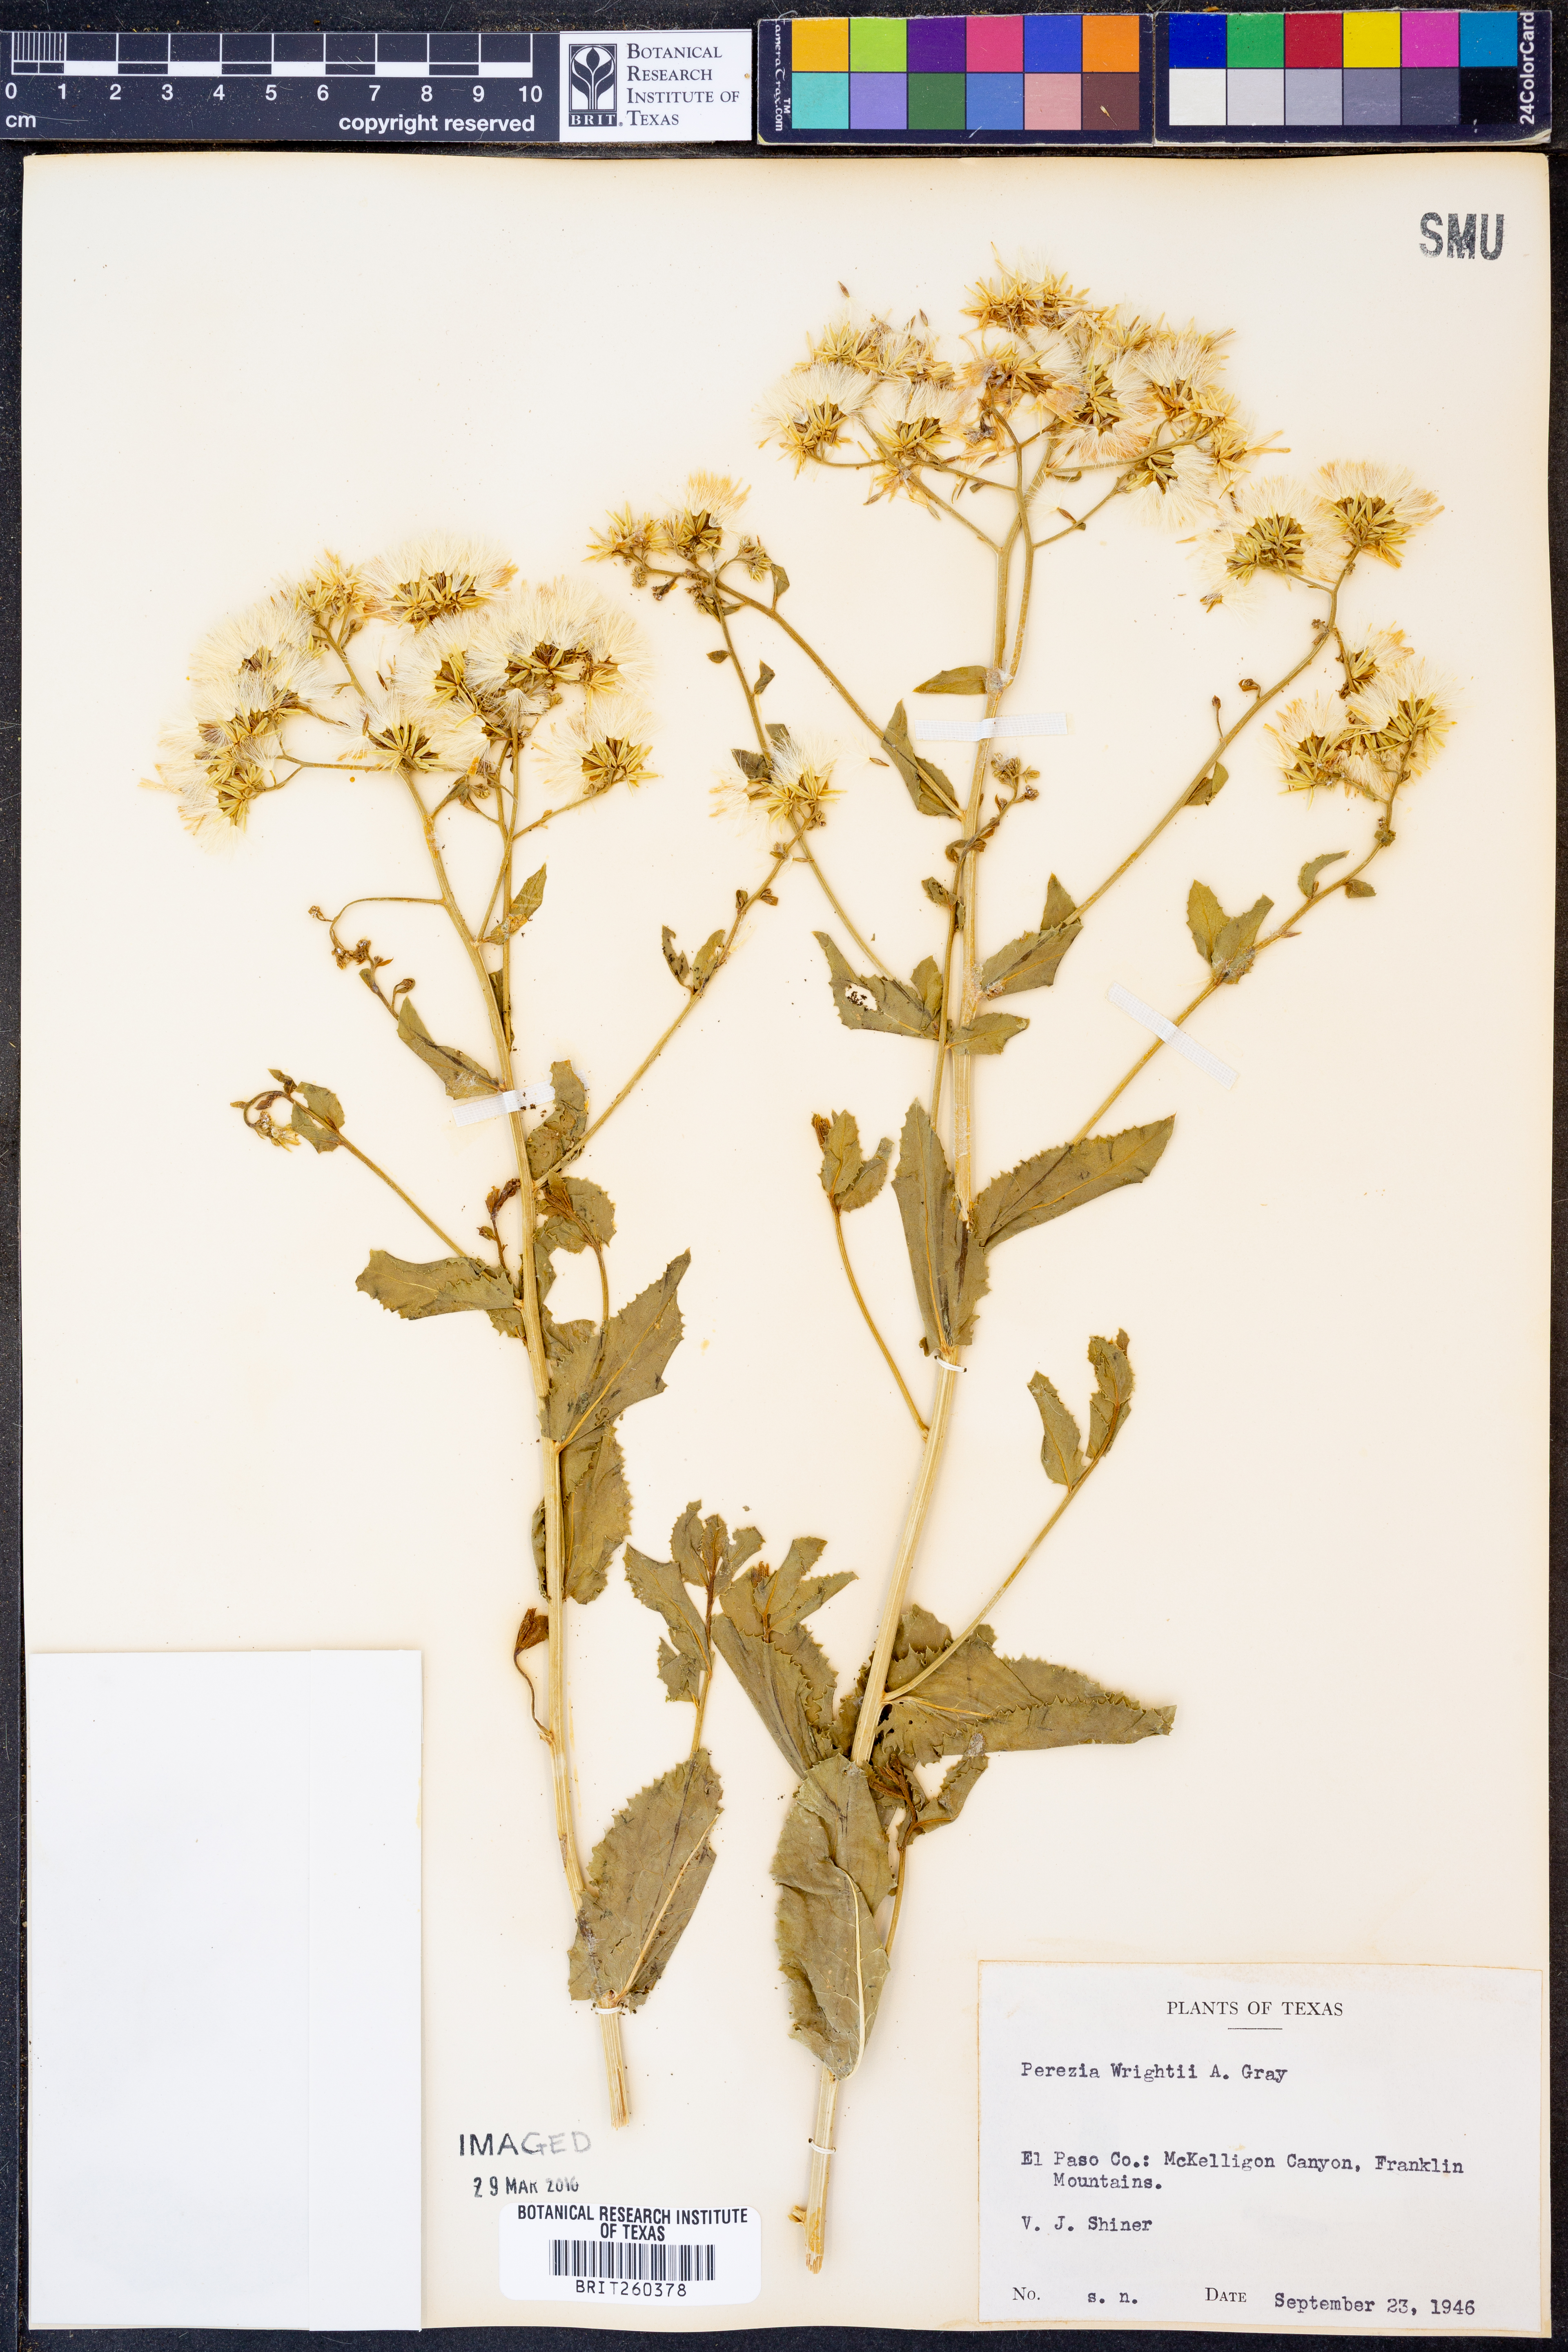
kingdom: Plantae
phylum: Tracheophyta
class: Magnoliopsida
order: Asterales
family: Asteraceae
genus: Acourtia
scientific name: Acourtia wrightii
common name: Brownfoot
